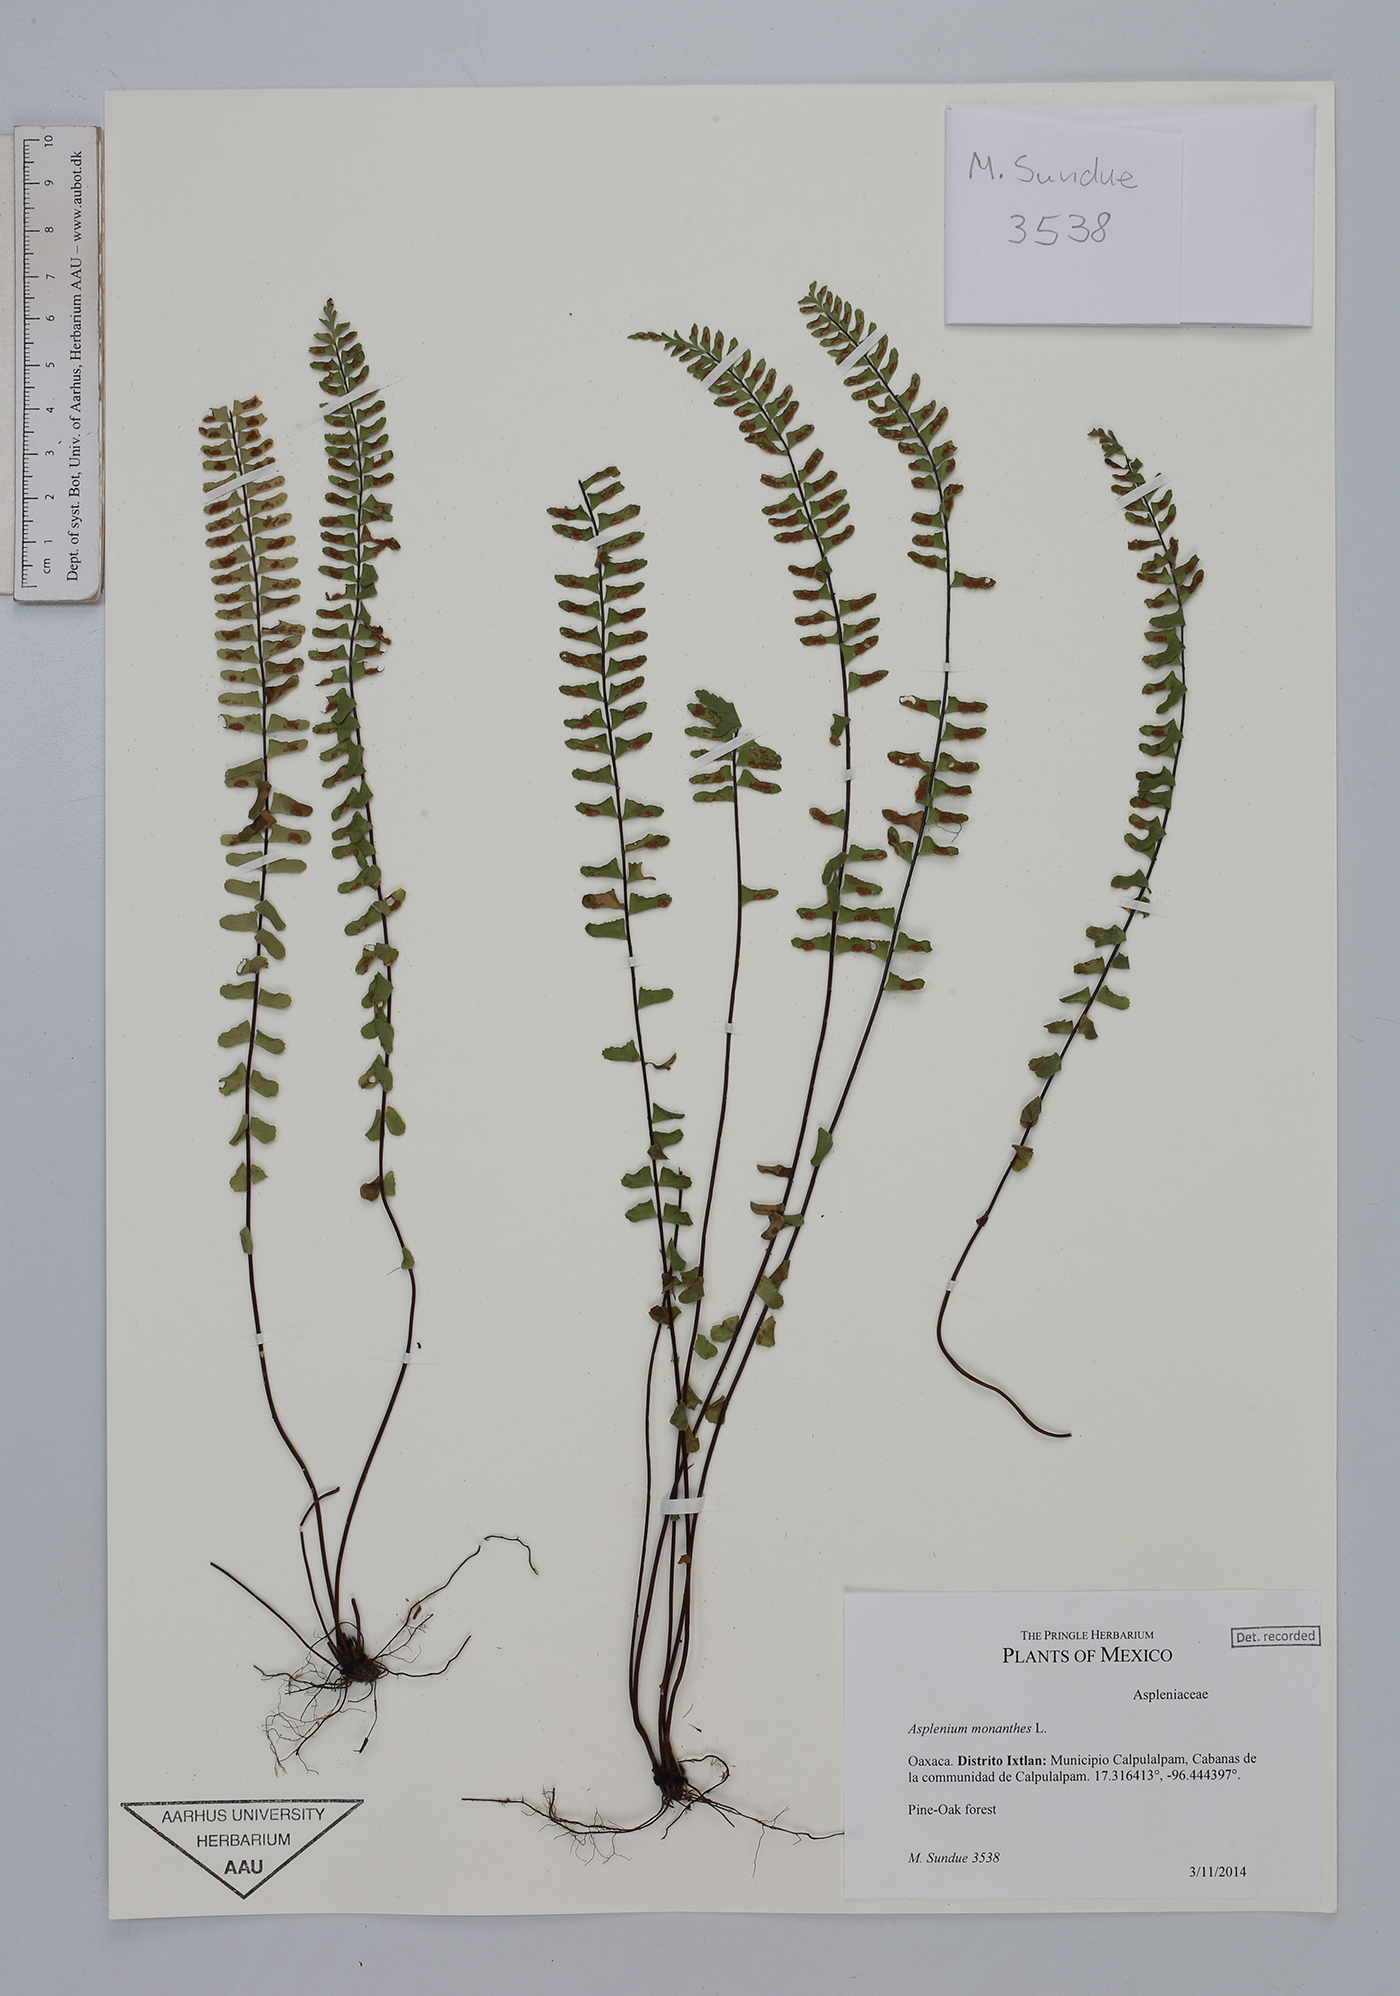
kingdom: Plantae
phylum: Tracheophyta
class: Polypodiopsida
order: Polypodiales
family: Aspleniaceae
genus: Asplenium
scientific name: Asplenium monanthes
